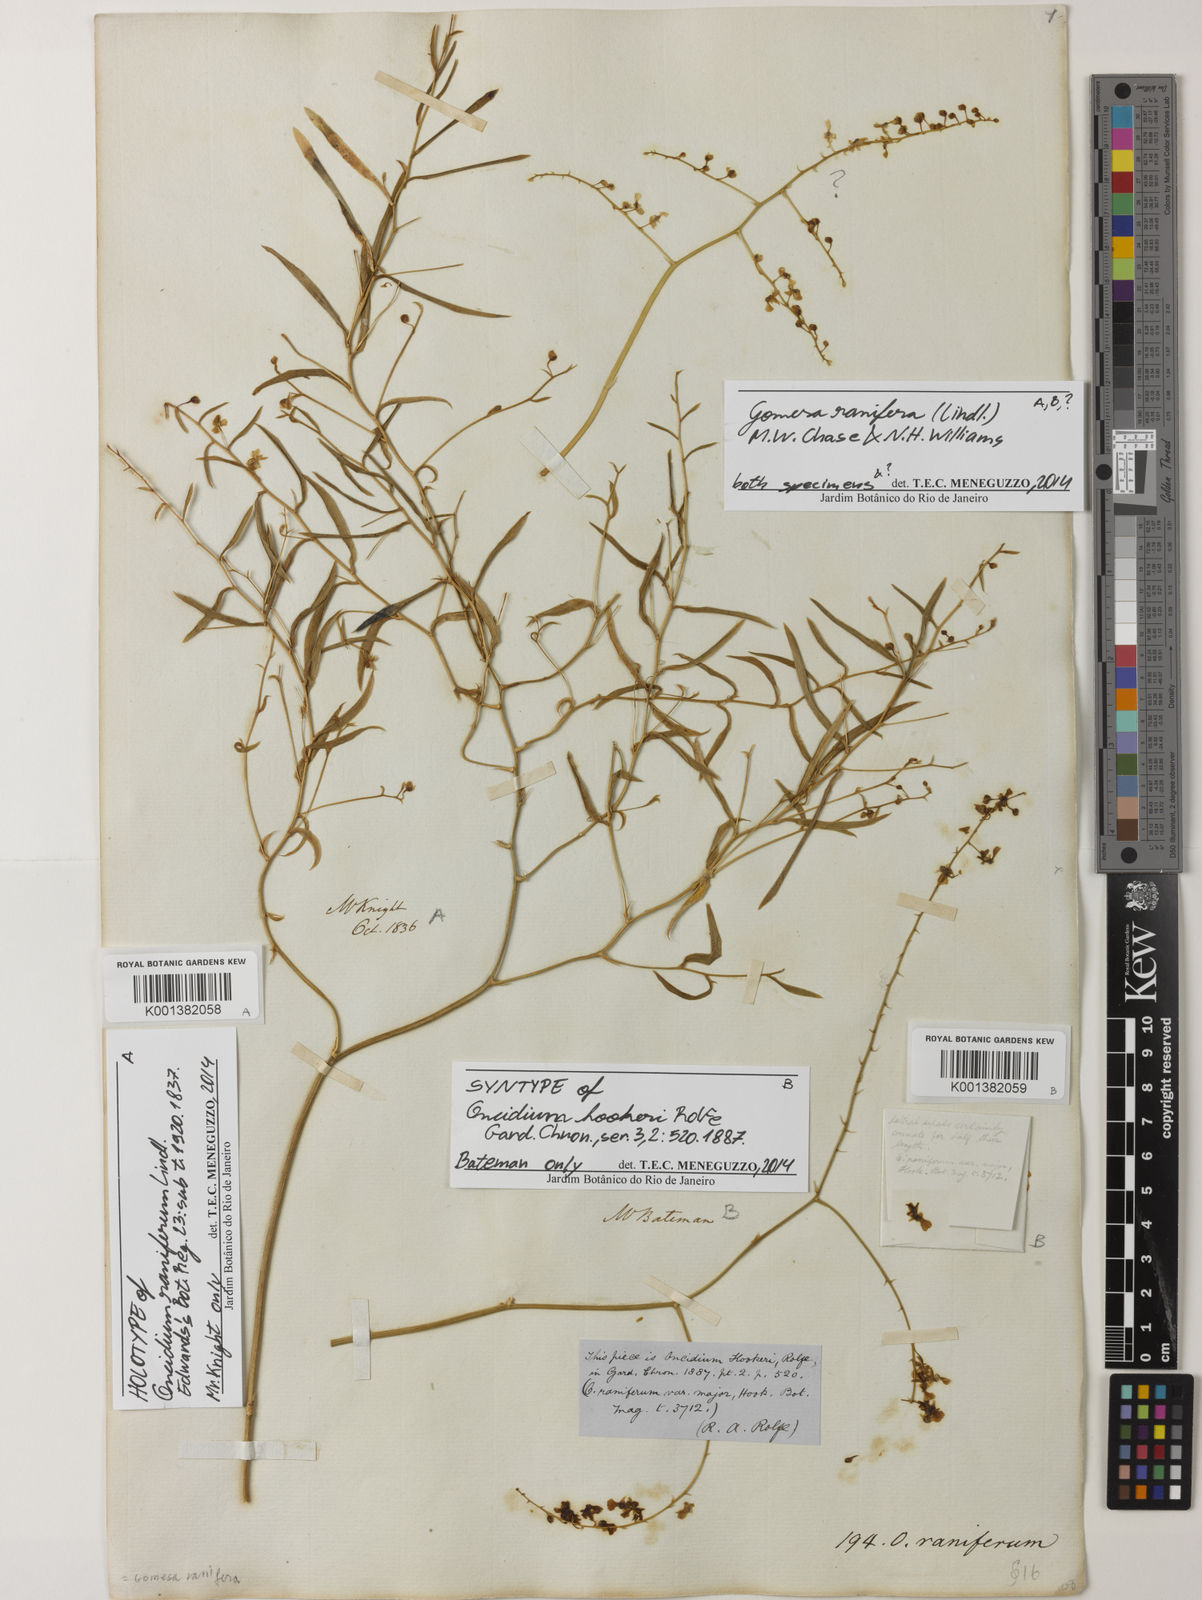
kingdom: Plantae
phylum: Tracheophyta
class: Liliopsida
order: Asparagales
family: Orchidaceae
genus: Gomesa
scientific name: Gomesa ranifera
